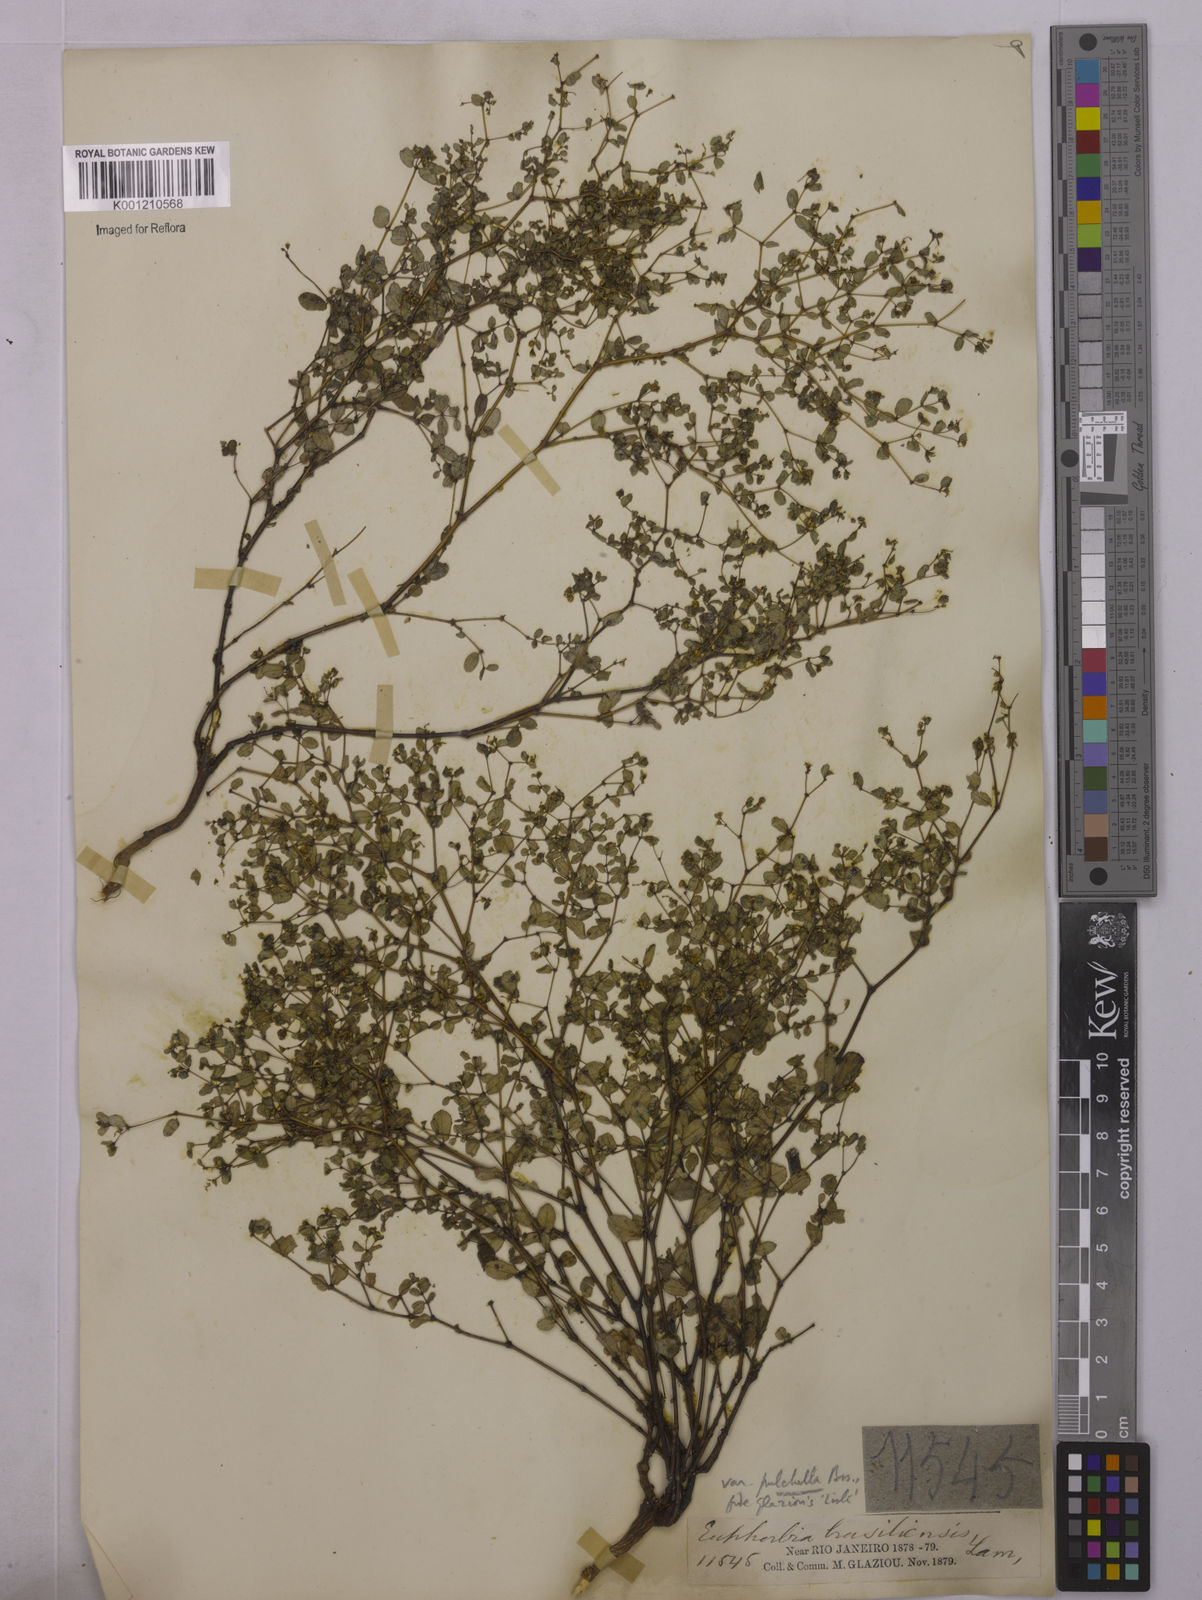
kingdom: Plantae
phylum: Tracheophyta
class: Magnoliopsida
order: Malpighiales
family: Euphorbiaceae
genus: Euphorbia
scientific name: Euphorbia hyssopifolia
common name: Hyssopleaf sandmat
